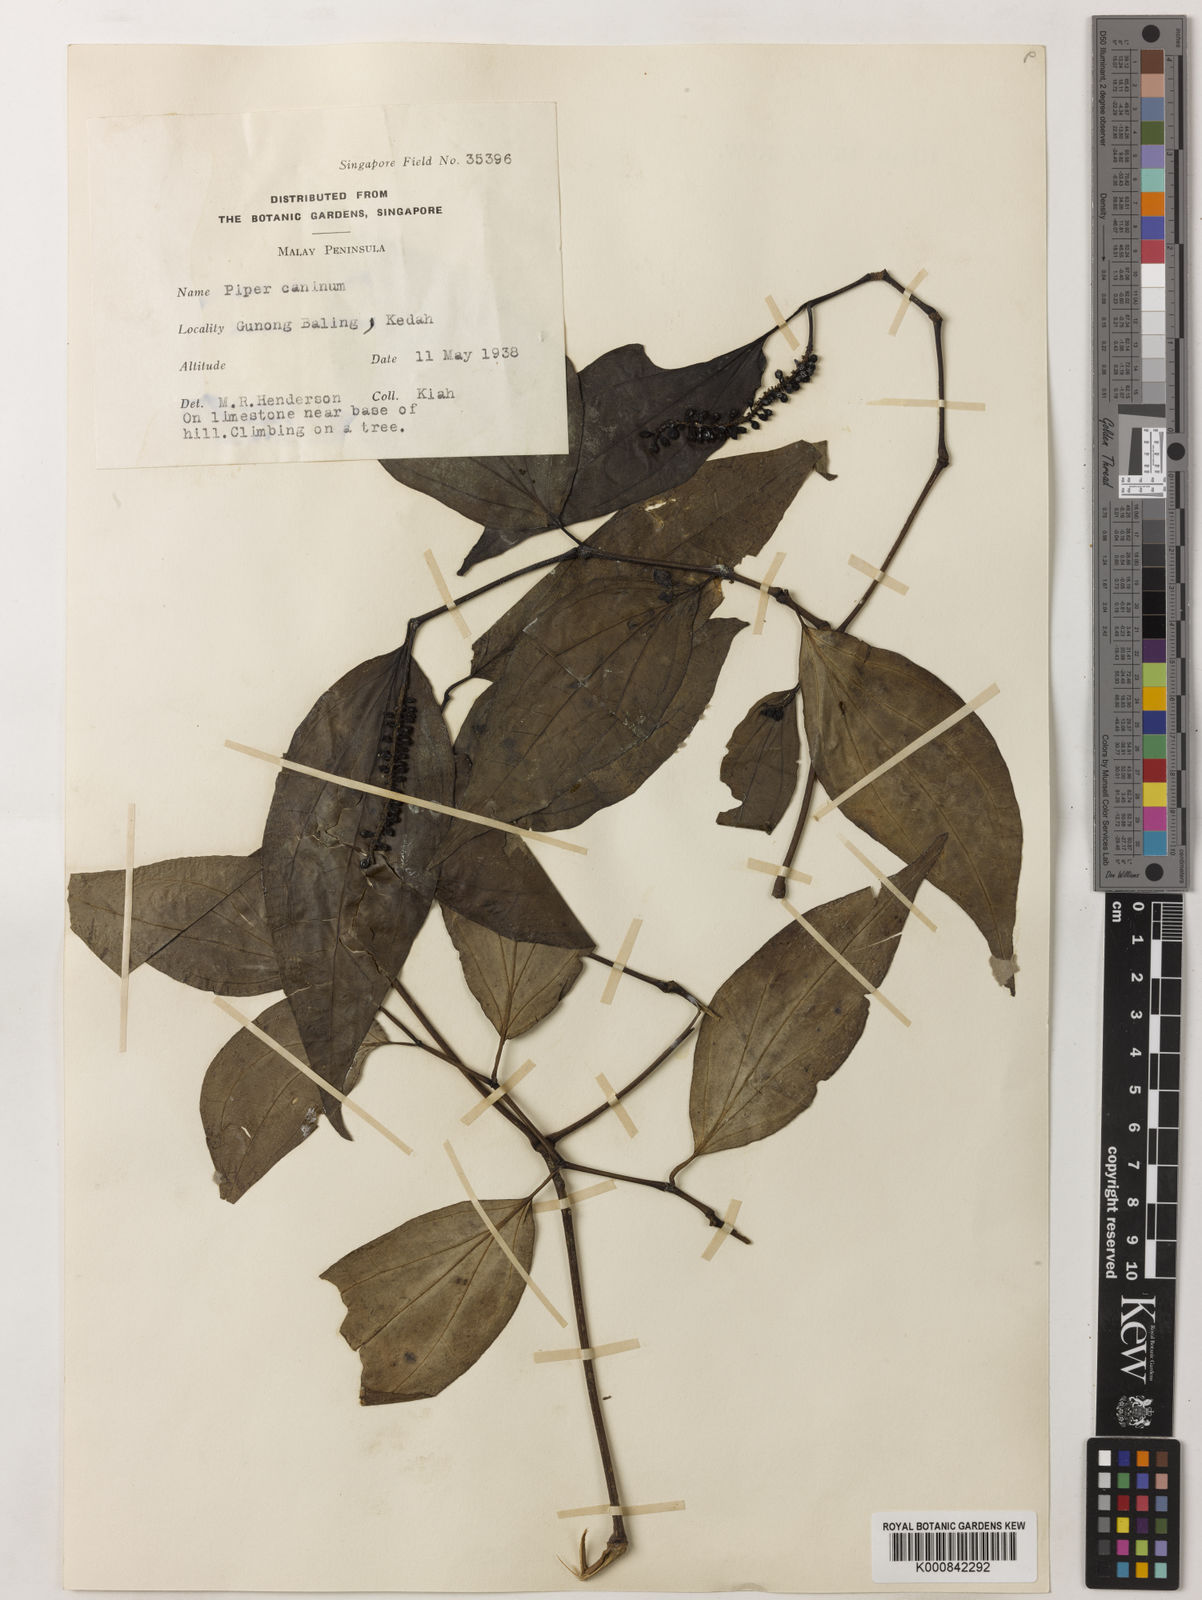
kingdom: Plantae
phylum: Tracheophyta
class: Magnoliopsida
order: Piperales
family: Piperaceae
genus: Piper
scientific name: Piper lanatum
